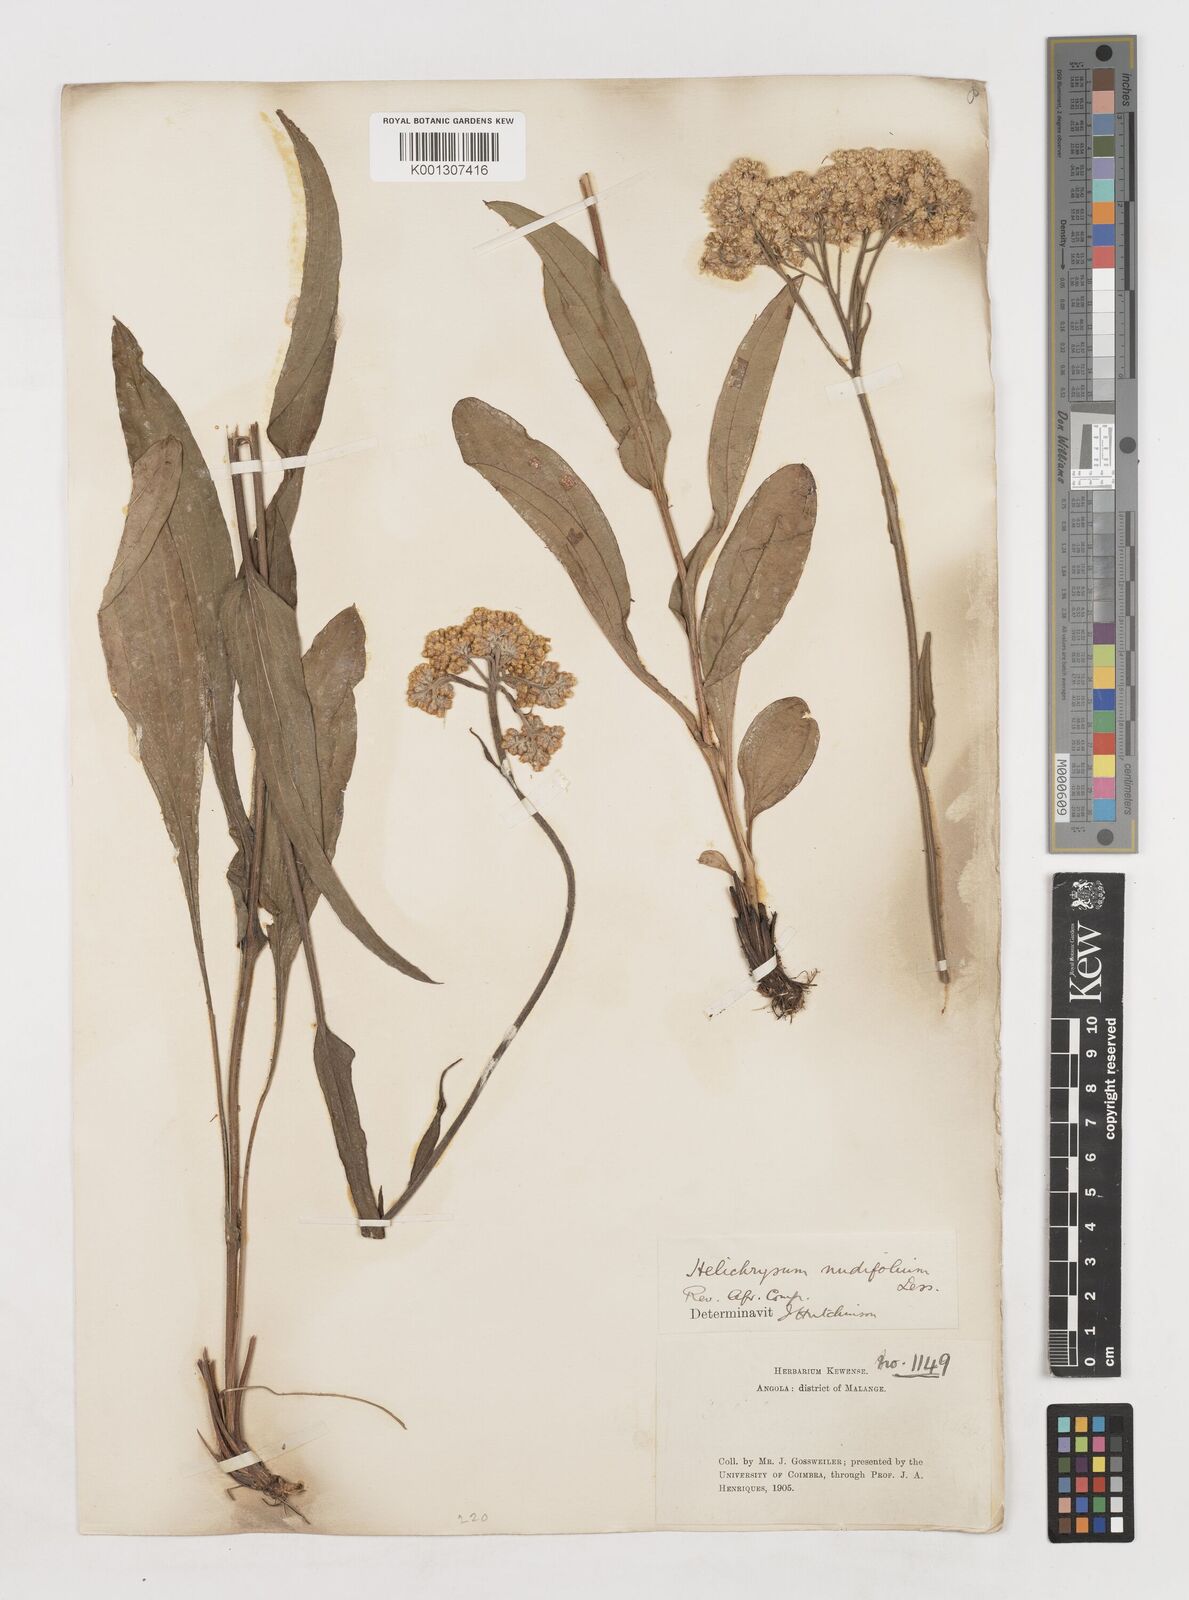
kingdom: Plantae
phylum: Tracheophyta
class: Magnoliopsida
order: Asterales
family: Asteraceae
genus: Helichrysum
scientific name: Helichrysum nudifolium
